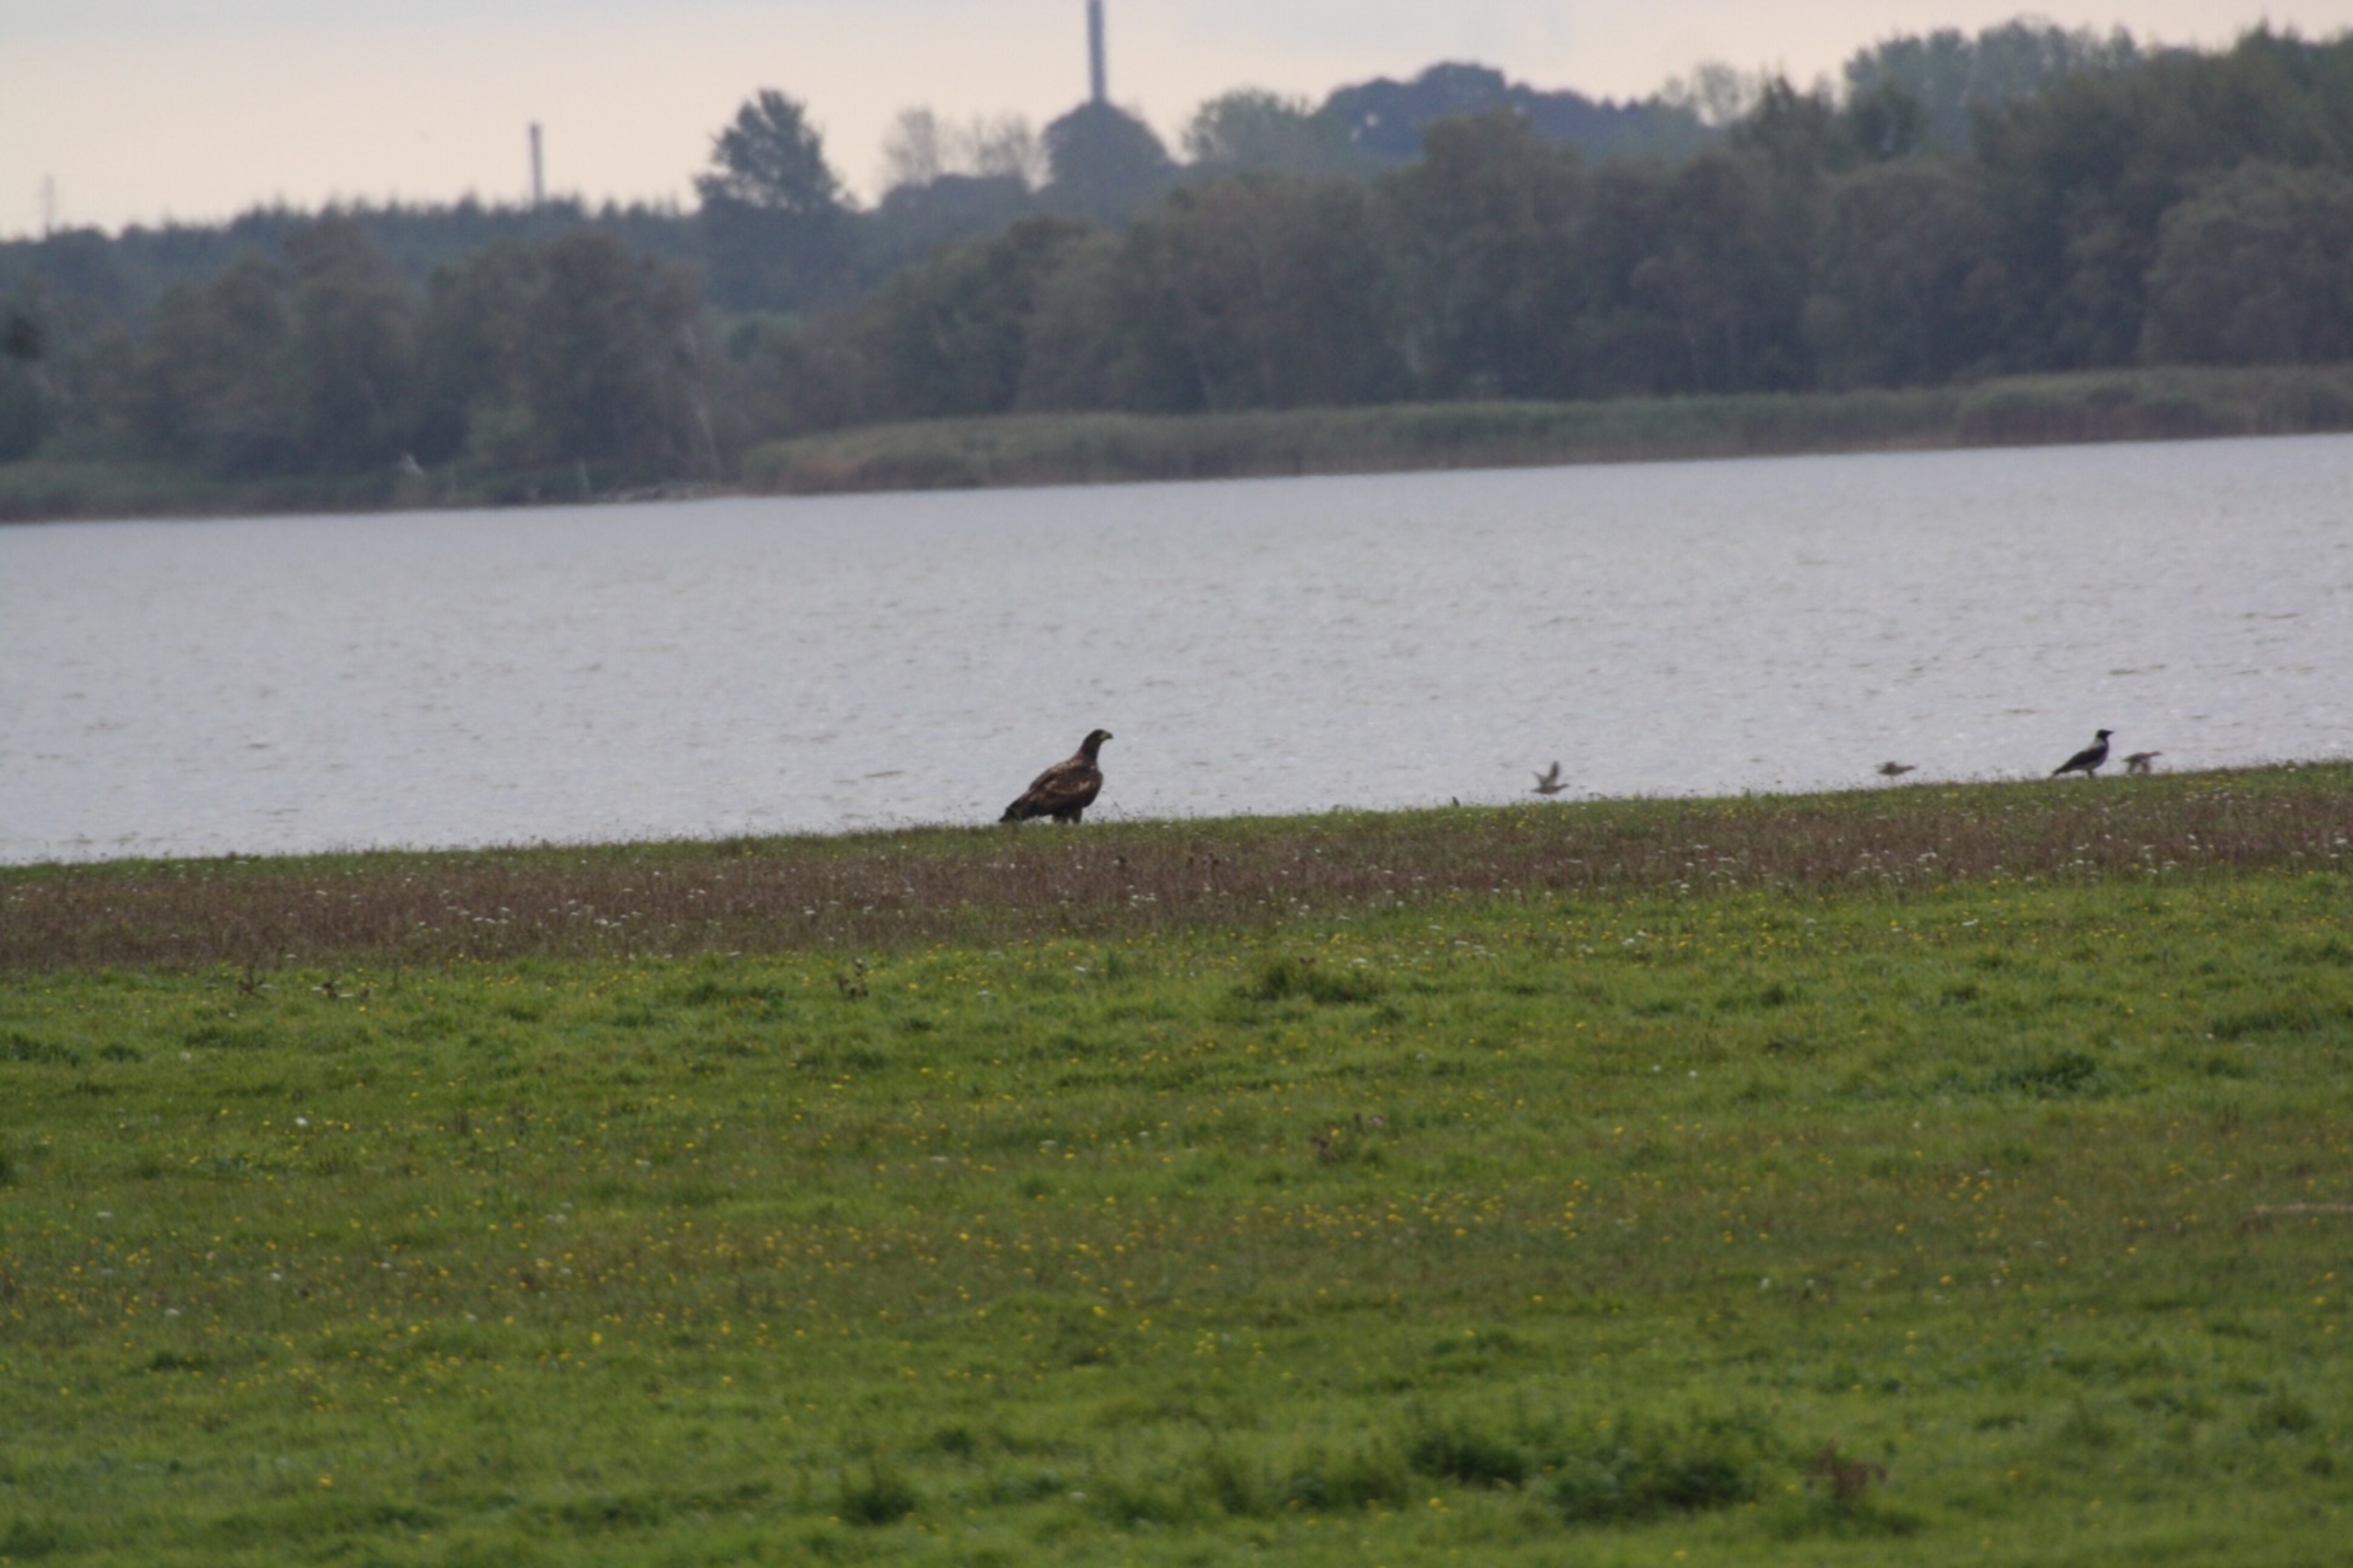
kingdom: Animalia
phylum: Chordata
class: Aves
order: Accipitriformes
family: Accipitridae
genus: Haliaeetus
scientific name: Haliaeetus albicilla
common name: Havørn
